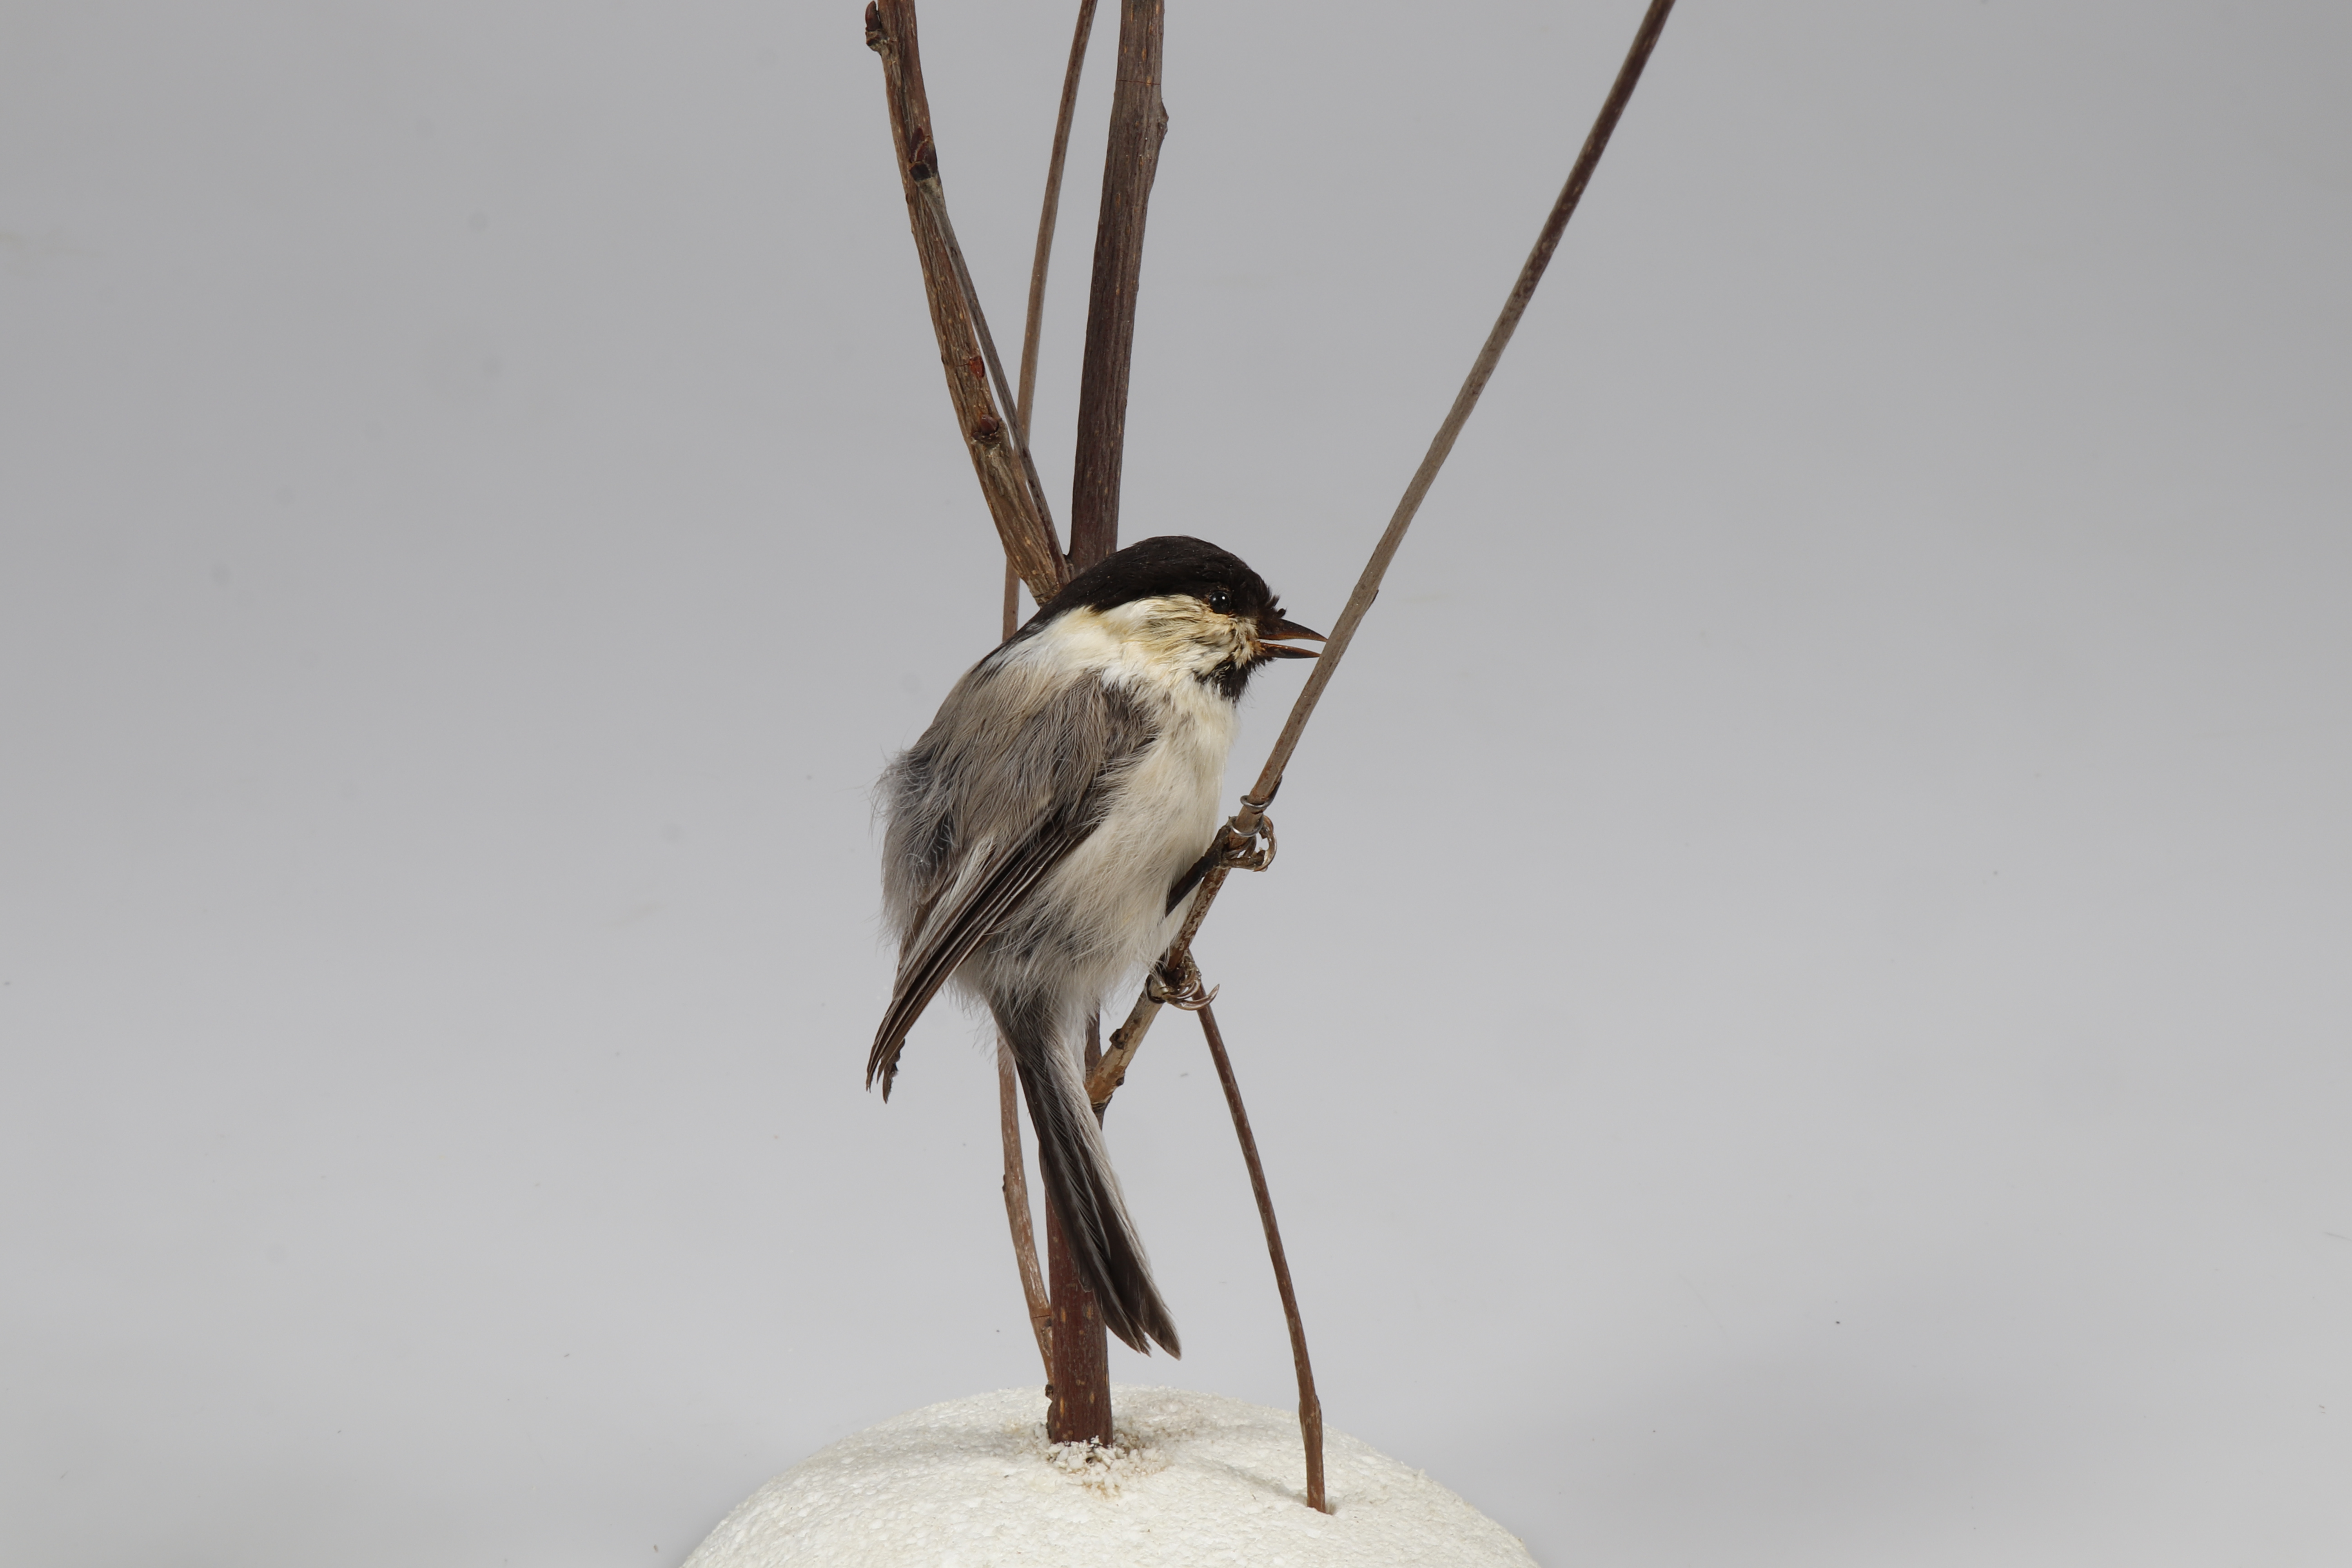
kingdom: Animalia
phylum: Chordata
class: Aves
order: Passeriformes
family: Paridae
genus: Poecile
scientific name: Poecile montanus
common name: Willow tit
